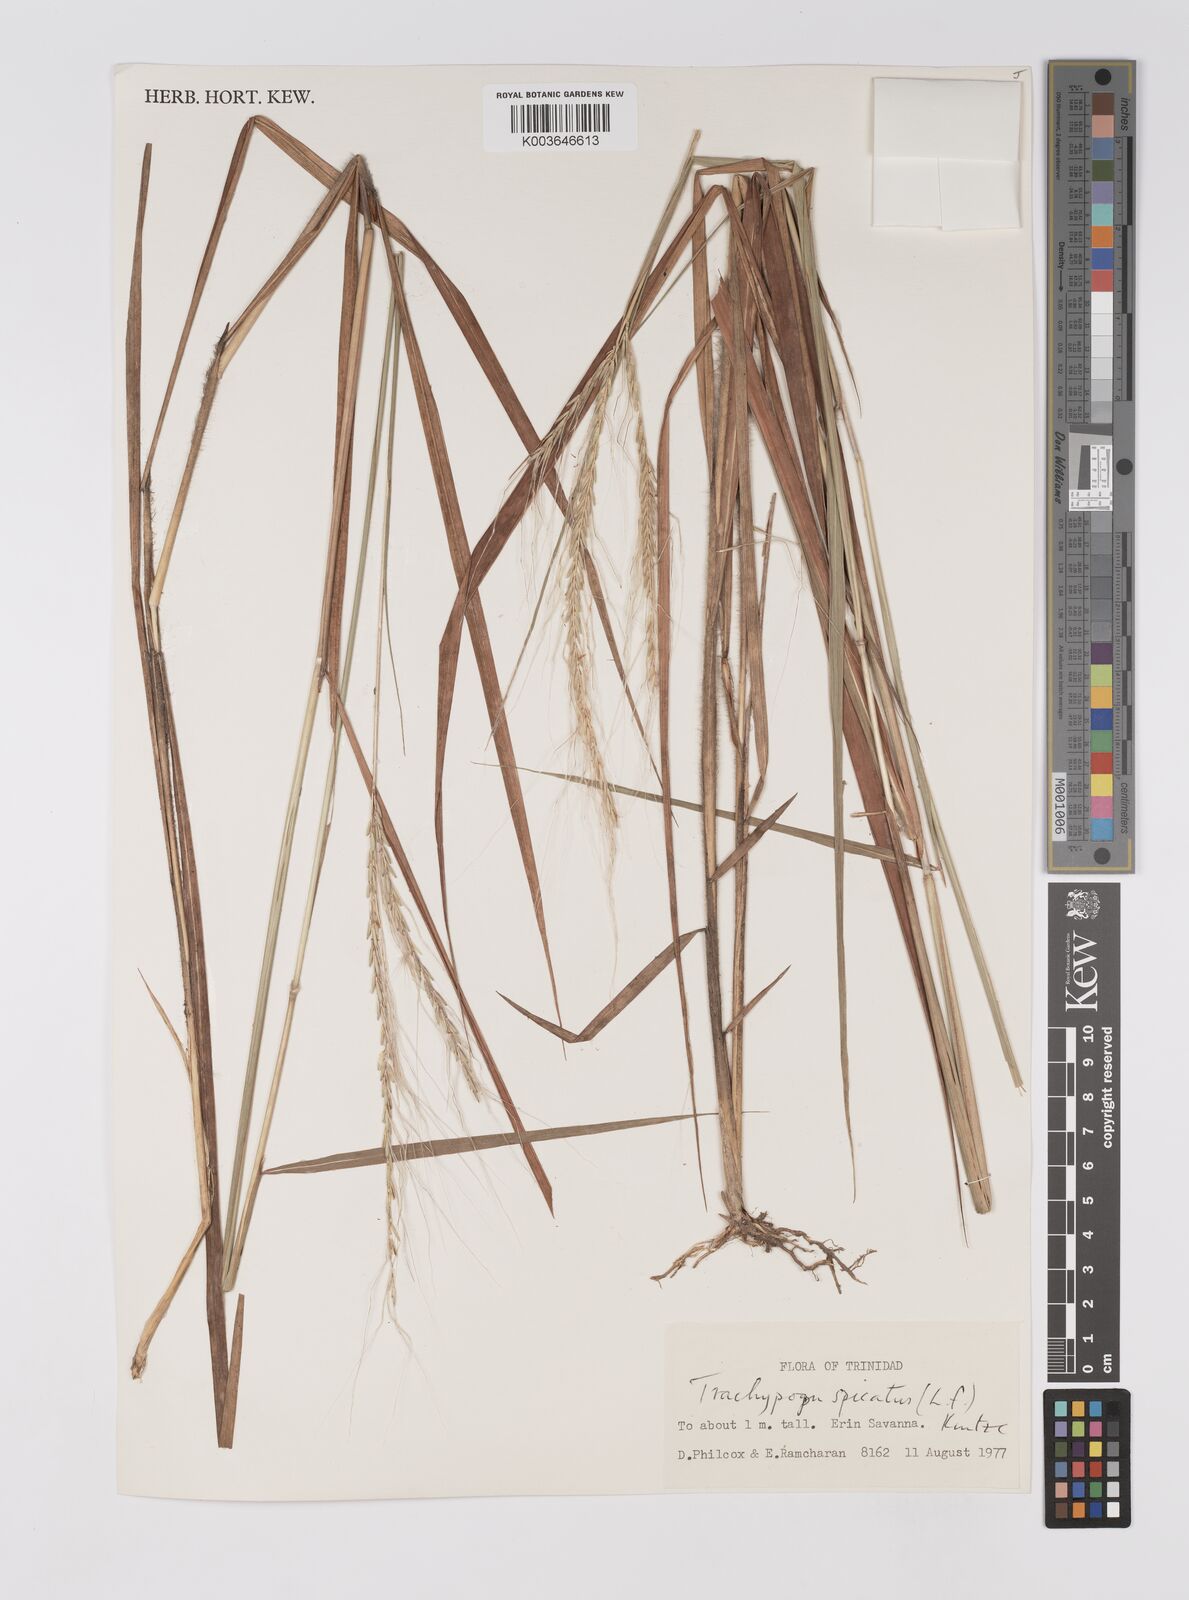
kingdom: Plantae
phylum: Tracheophyta
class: Liliopsida
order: Poales
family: Poaceae
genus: Trachypogon
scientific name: Trachypogon spicatus
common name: Crinkle-awn
